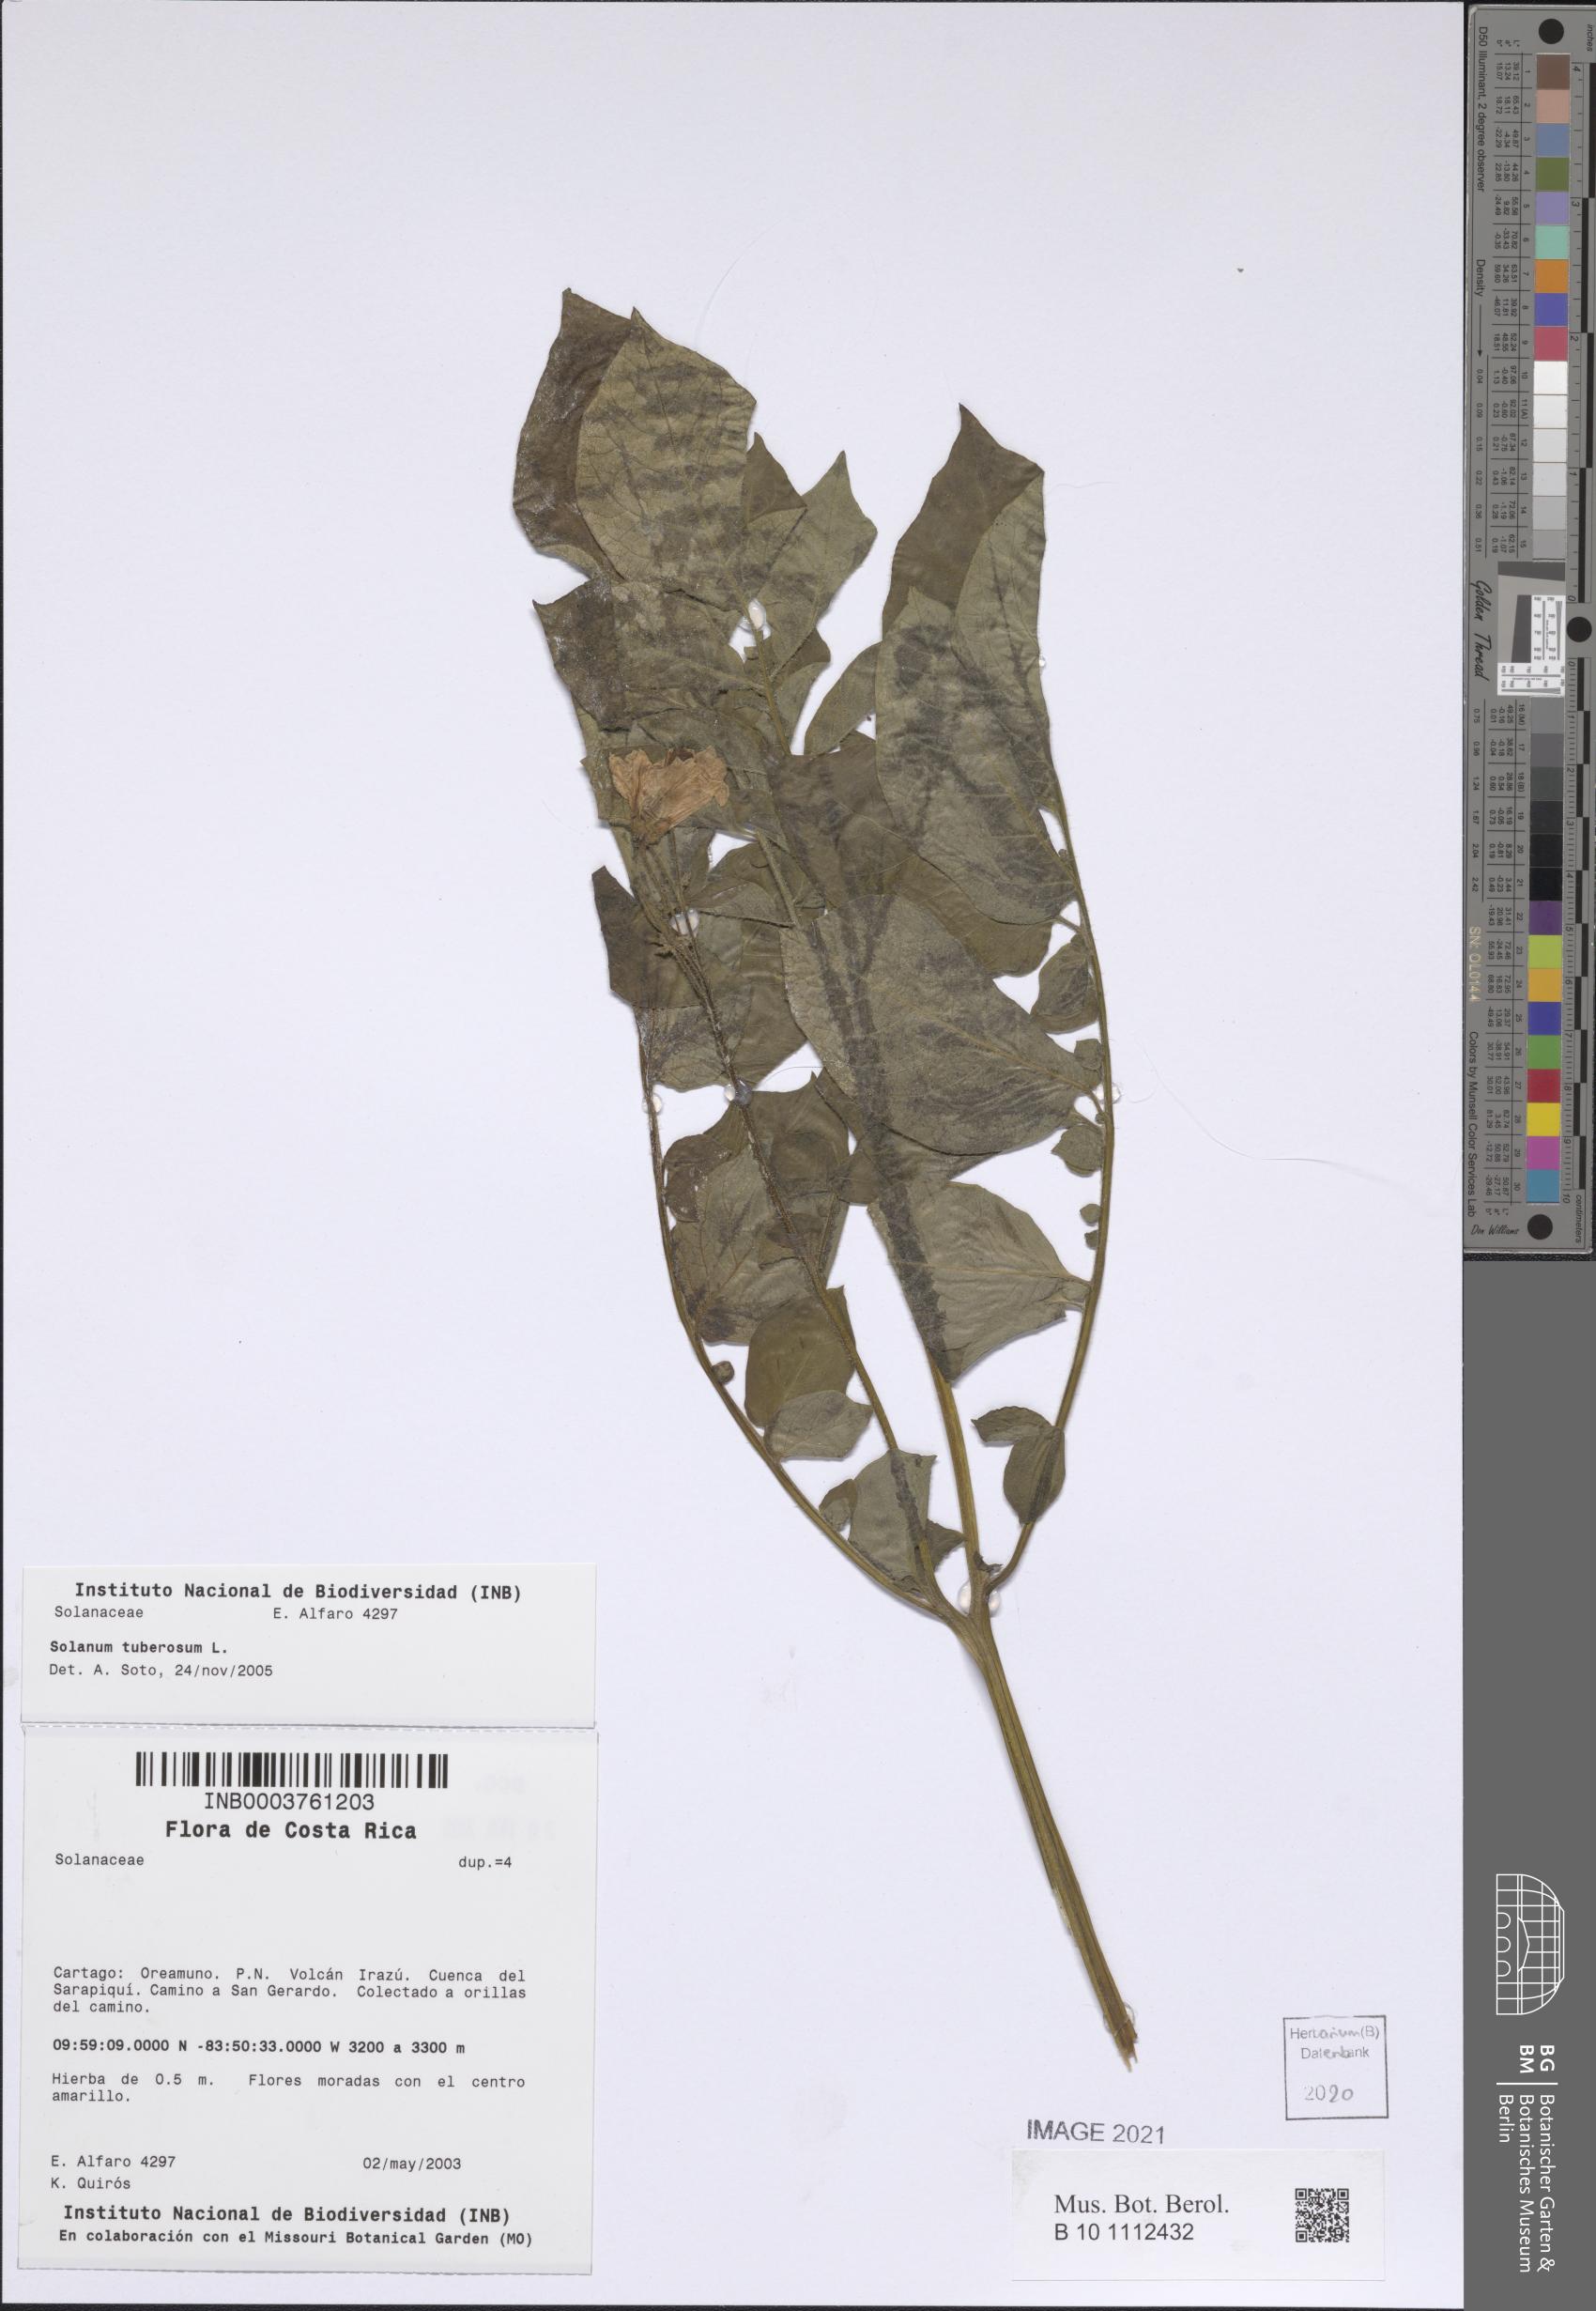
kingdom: Plantae
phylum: Tracheophyta
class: Magnoliopsida
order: Solanales
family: Solanaceae
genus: Solanum
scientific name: Solanum tuberosum
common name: Potato
